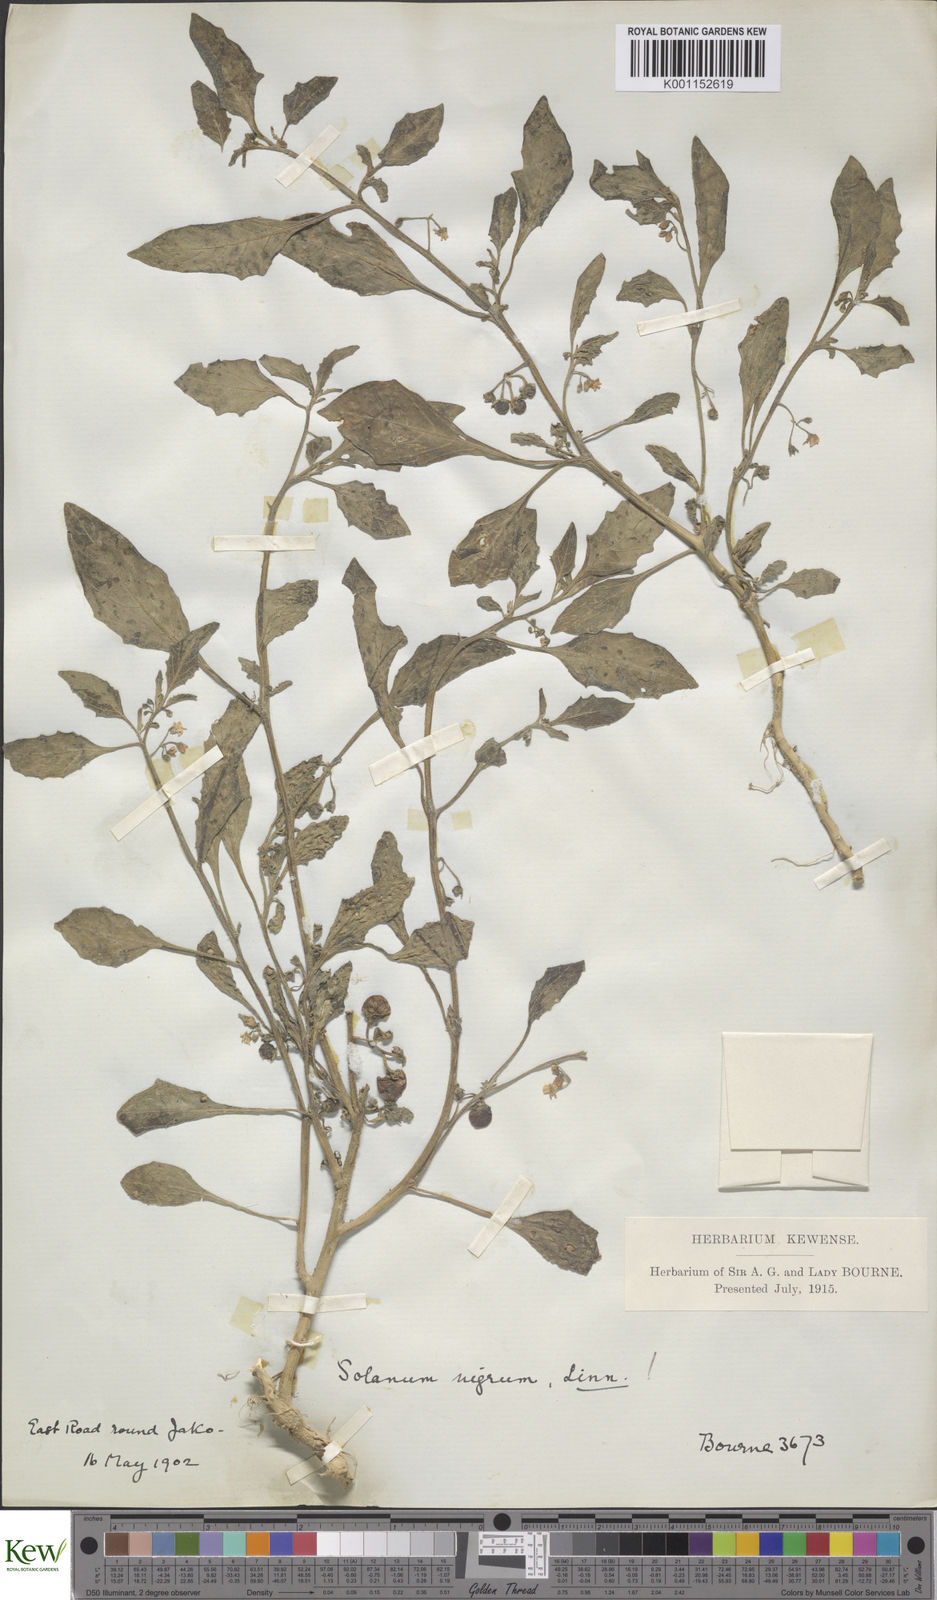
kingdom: Plantae
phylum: Tracheophyta
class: Magnoliopsida
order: Solanales
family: Solanaceae
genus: Solanum
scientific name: Solanum nigrum
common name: Black nightshade
